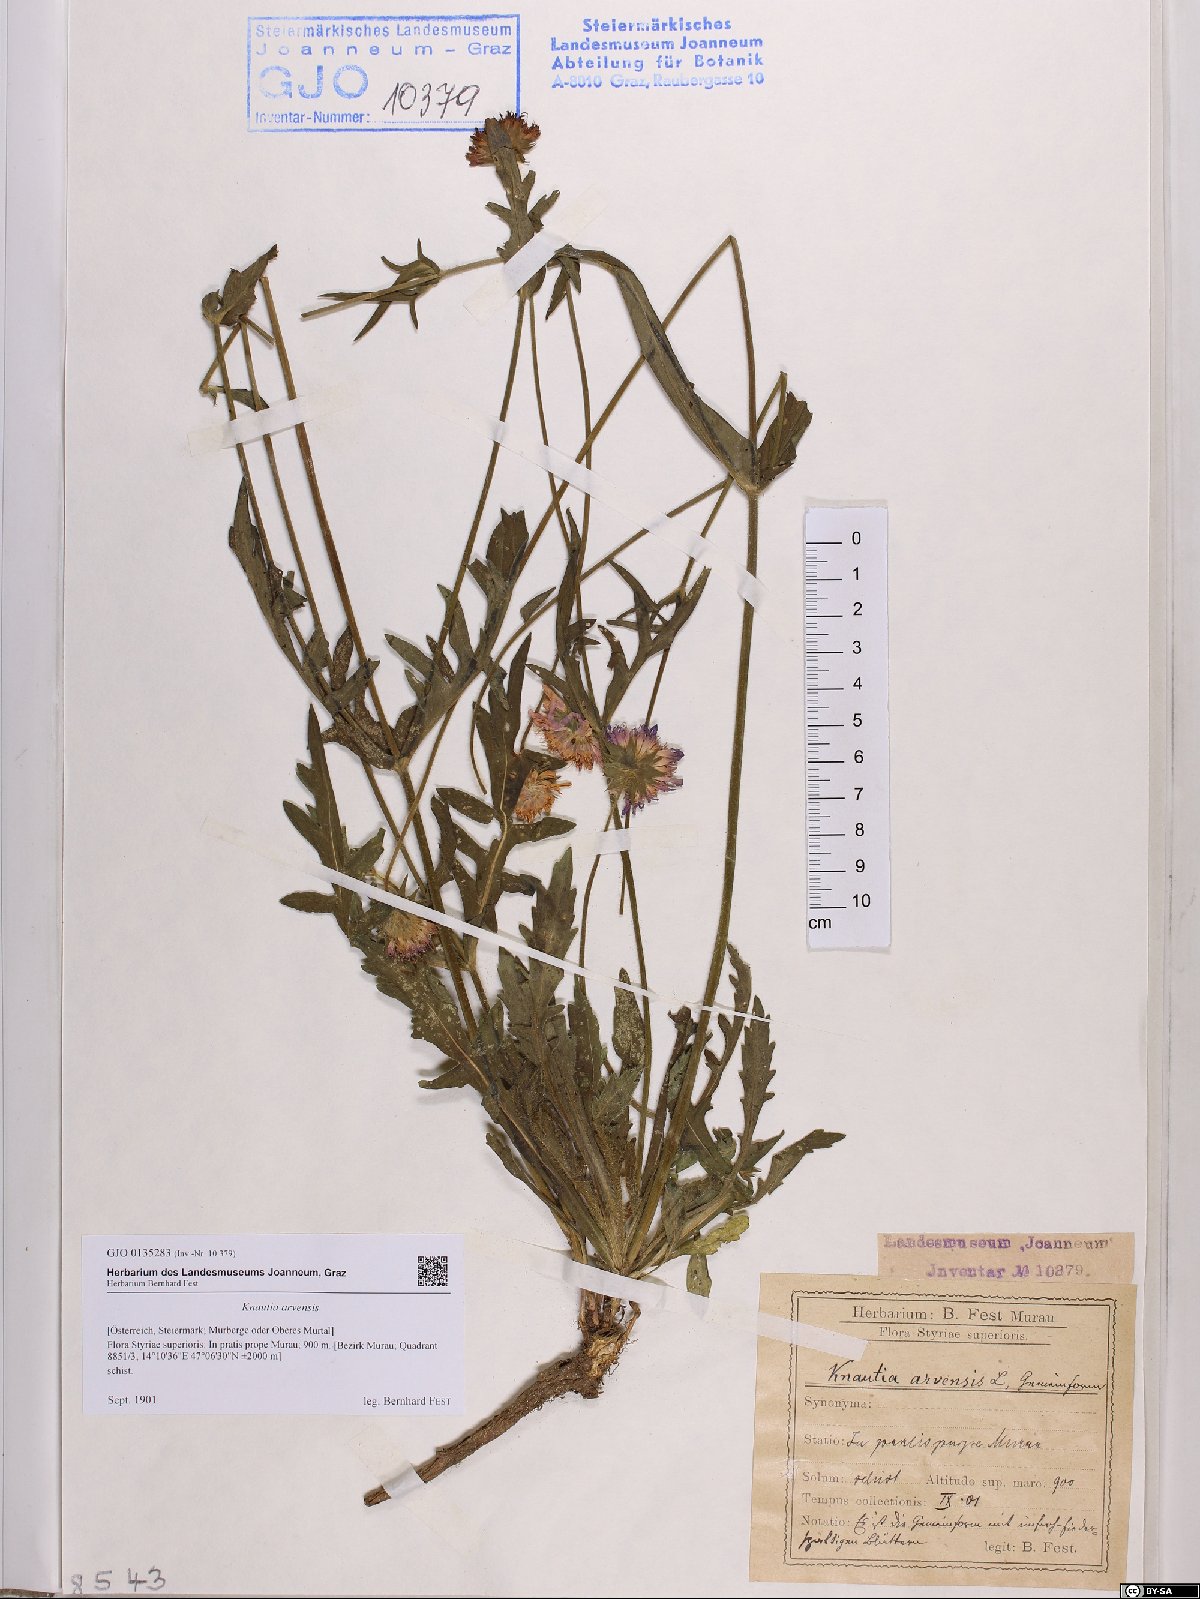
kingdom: Plantae
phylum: Tracheophyta
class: Magnoliopsida
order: Dipsacales
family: Caprifoliaceae
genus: Knautia
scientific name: Knautia arvensis
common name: Field scabiosa
